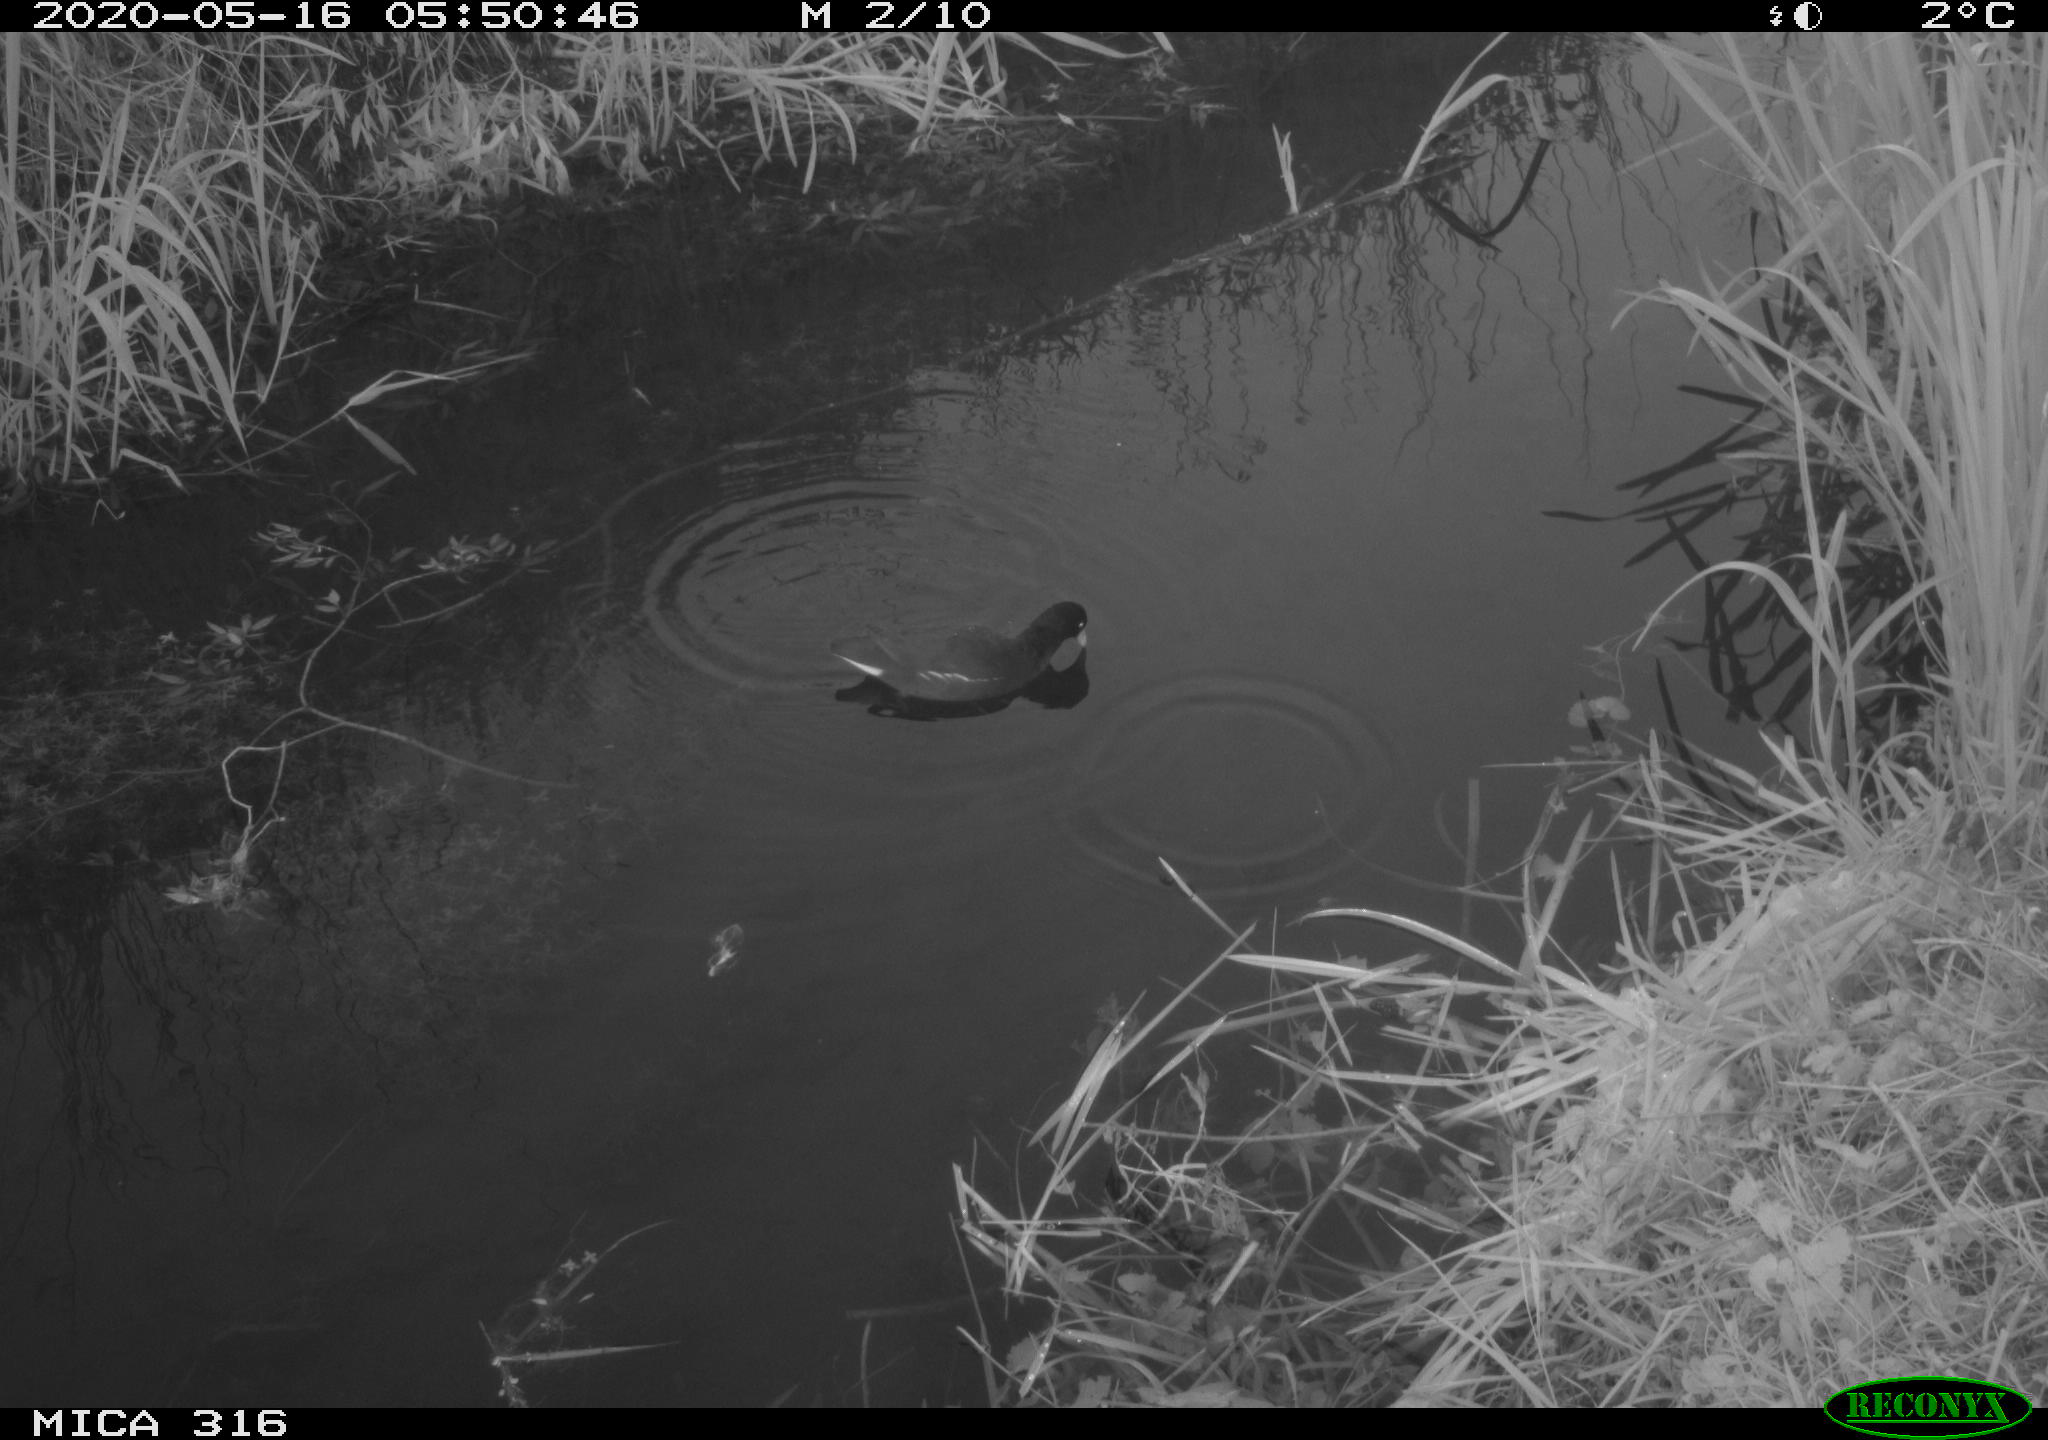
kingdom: Animalia
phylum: Chordata
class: Aves
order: Gruiformes
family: Rallidae
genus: Gallinula
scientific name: Gallinula chloropus
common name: Common moorhen
